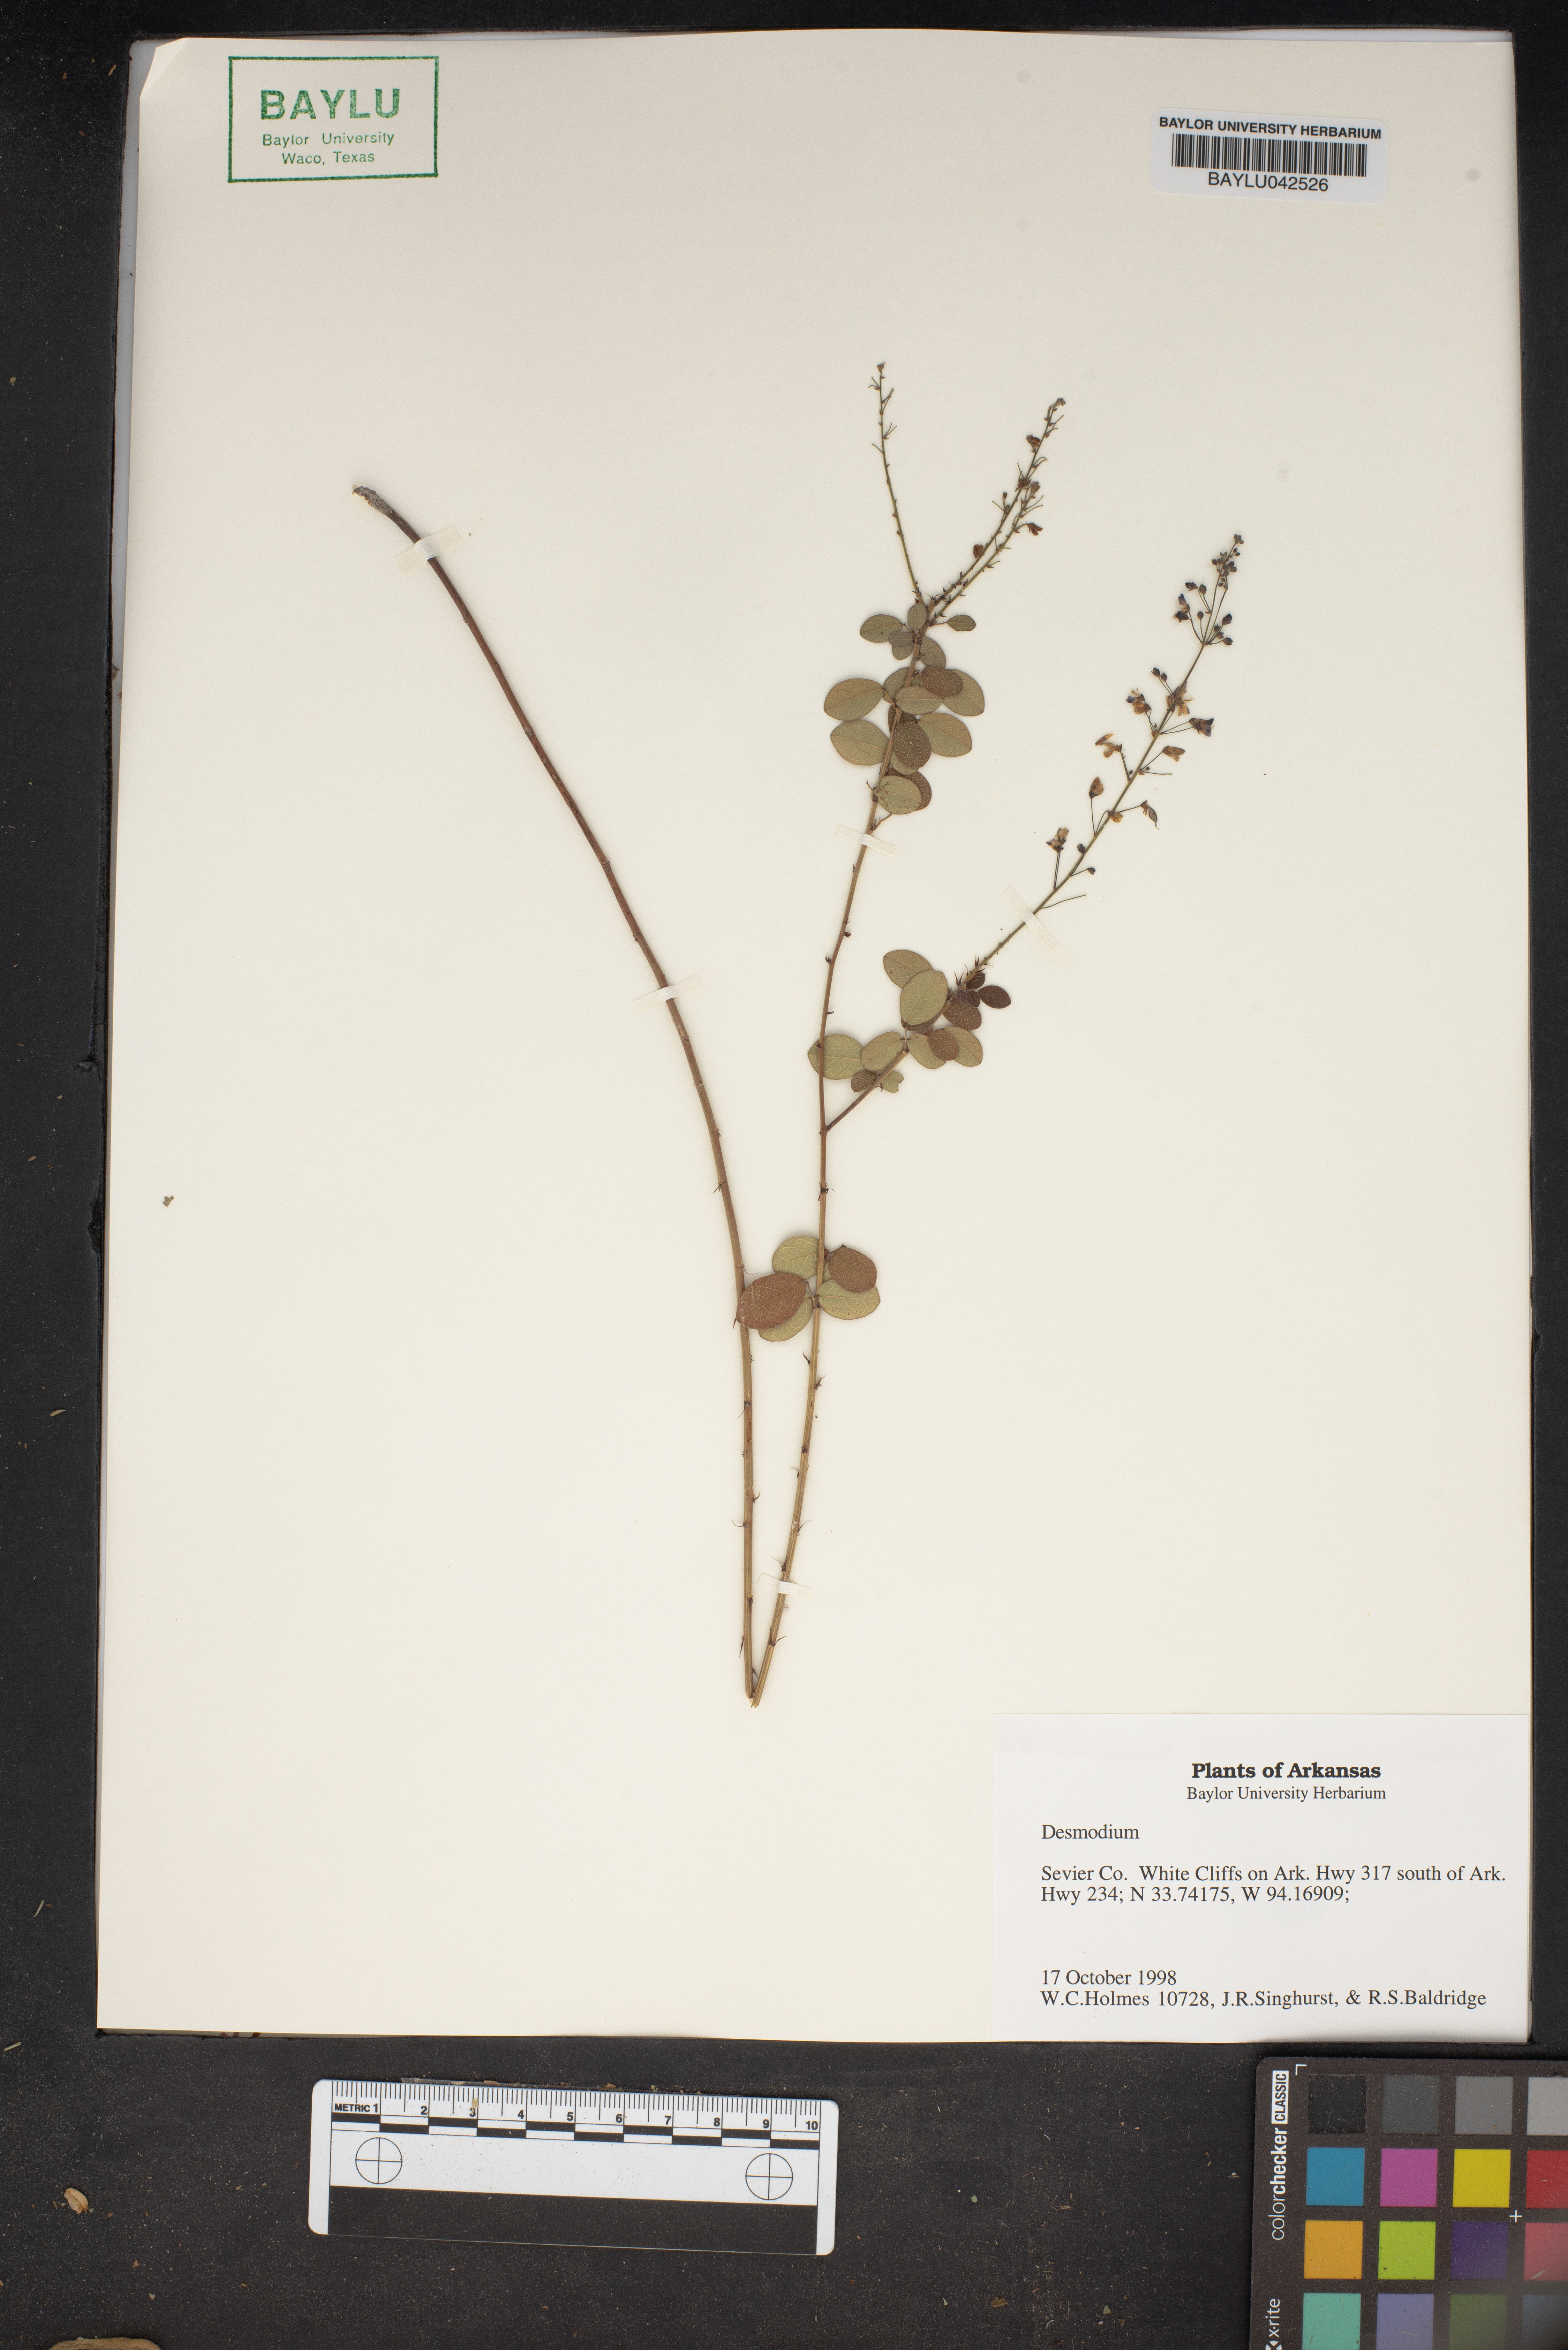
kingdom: Plantae
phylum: Tracheophyta
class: Magnoliopsida
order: Fabales
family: Fabaceae
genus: Desmodium
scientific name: Desmodium
